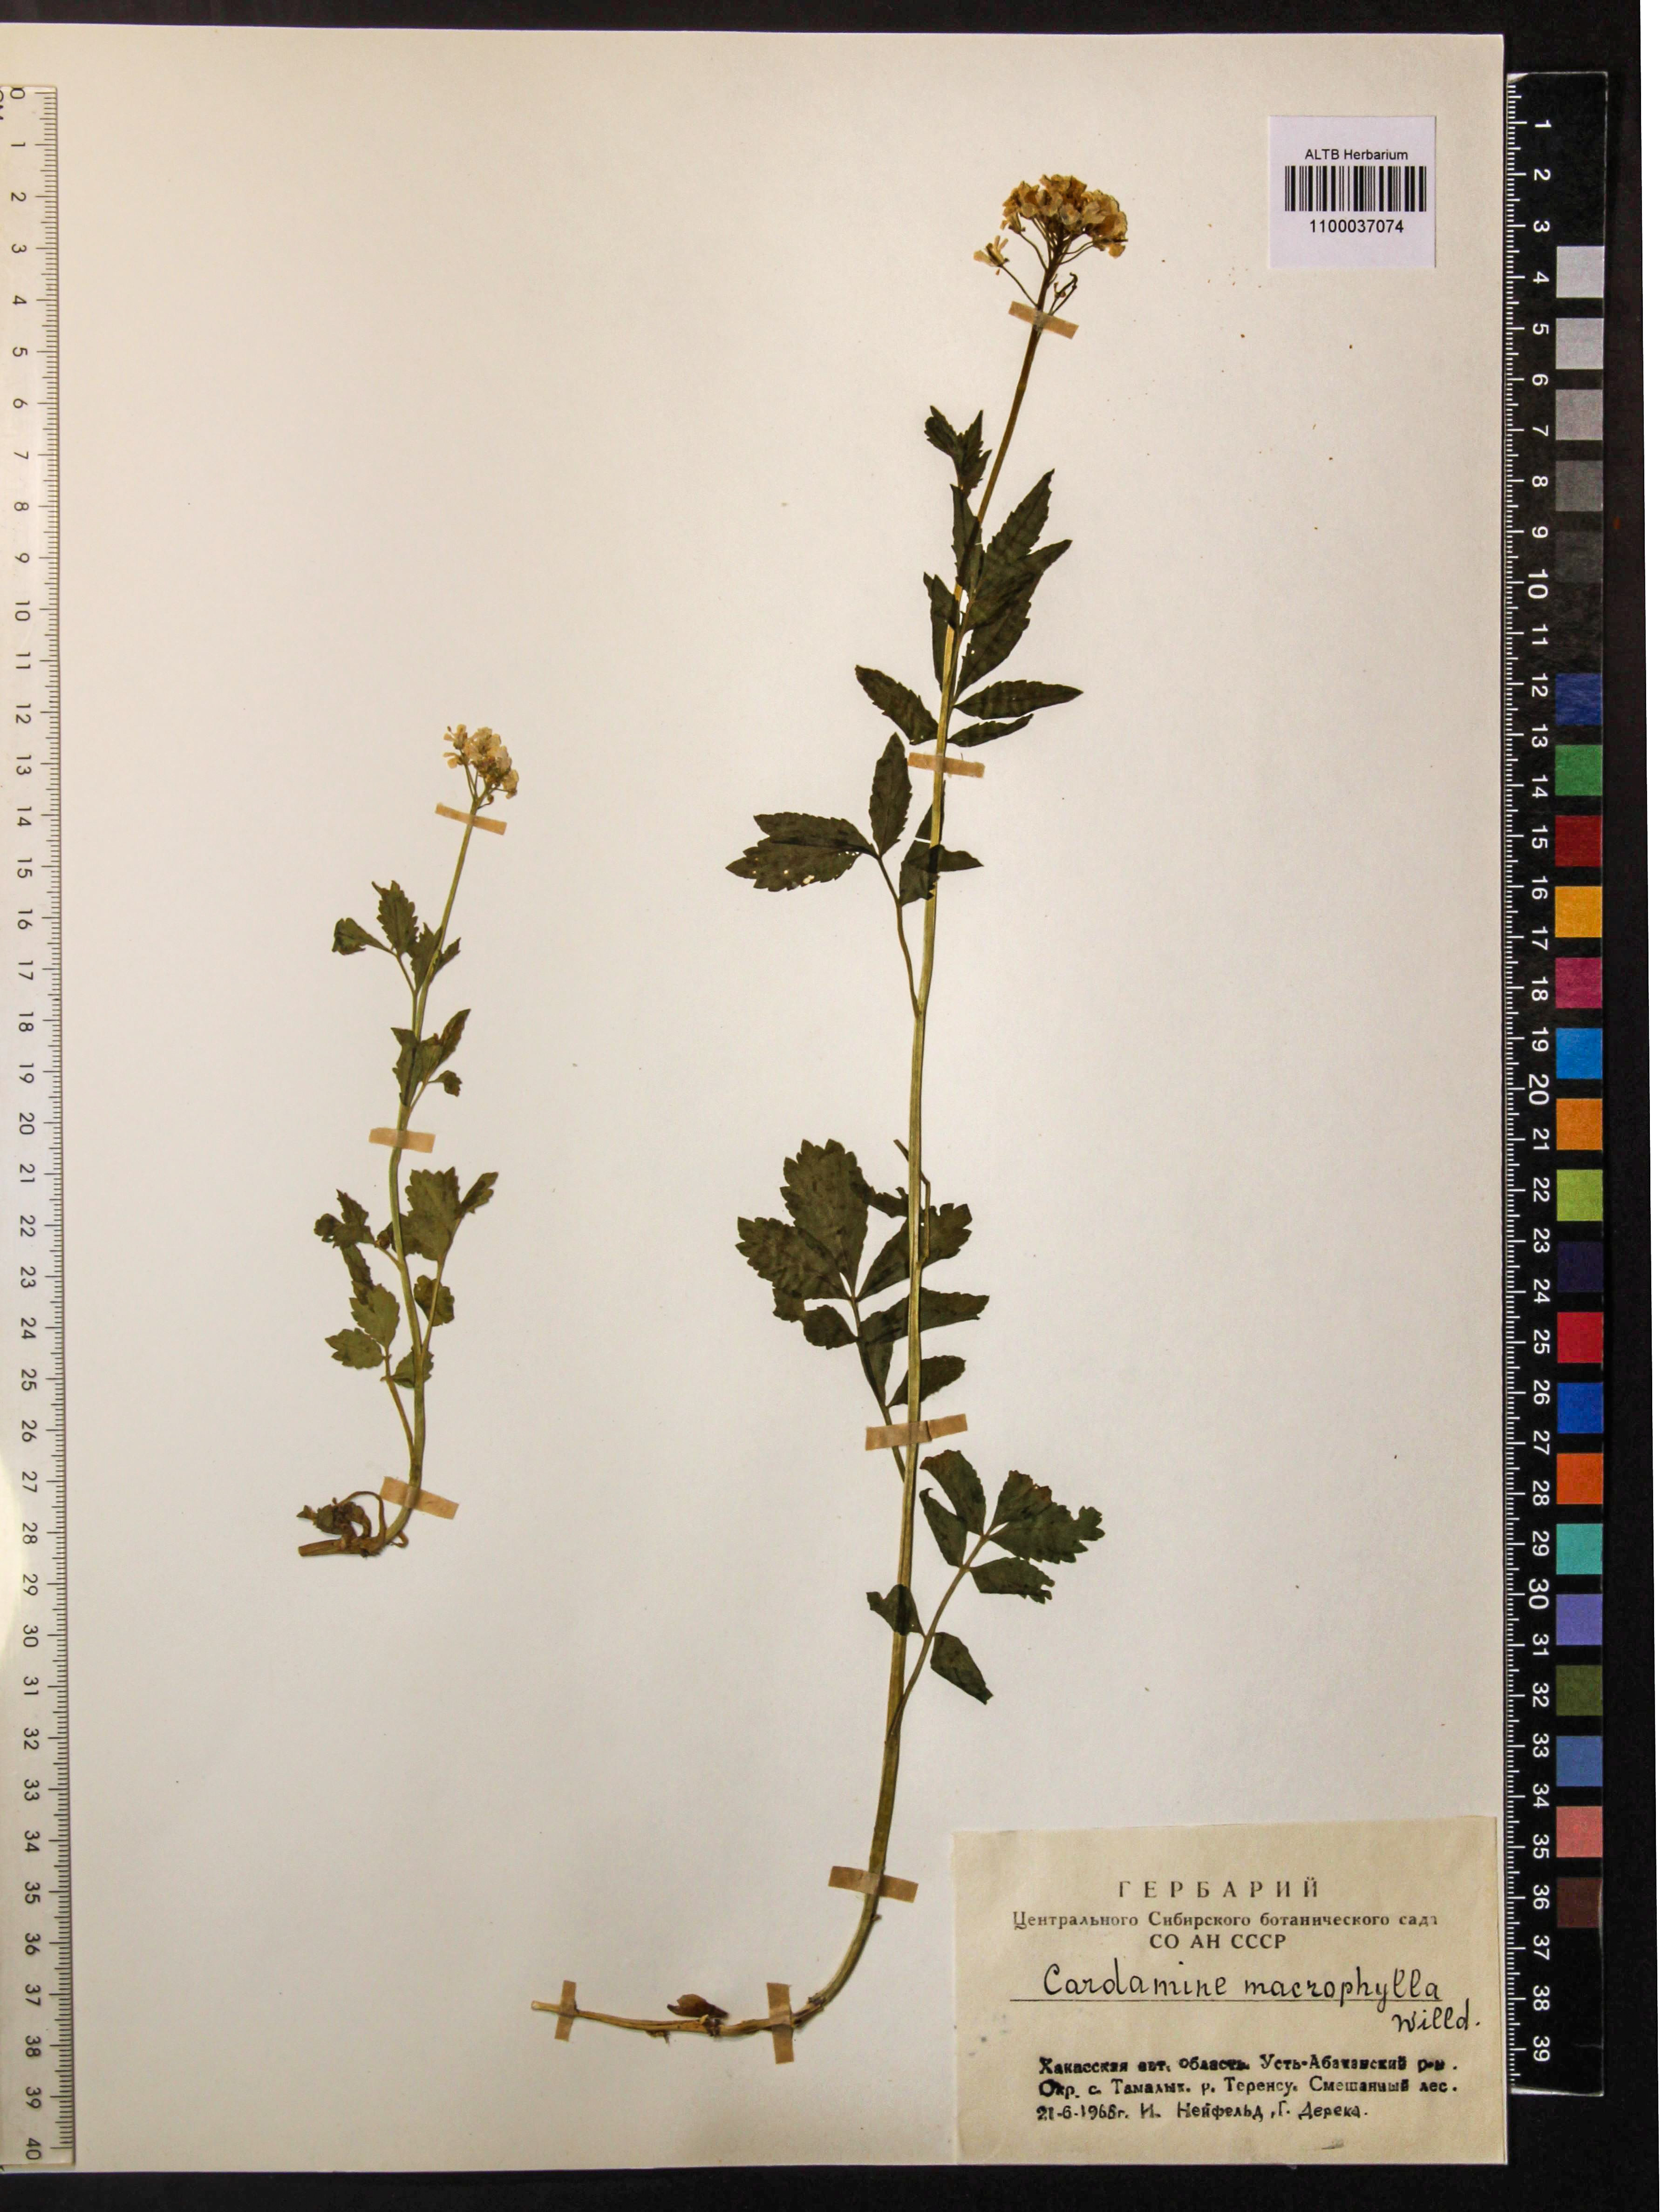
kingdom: Plantae
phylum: Tracheophyta
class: Magnoliopsida
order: Brassicales
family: Brassicaceae
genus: Cardamine
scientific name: Cardamine macrophylla
